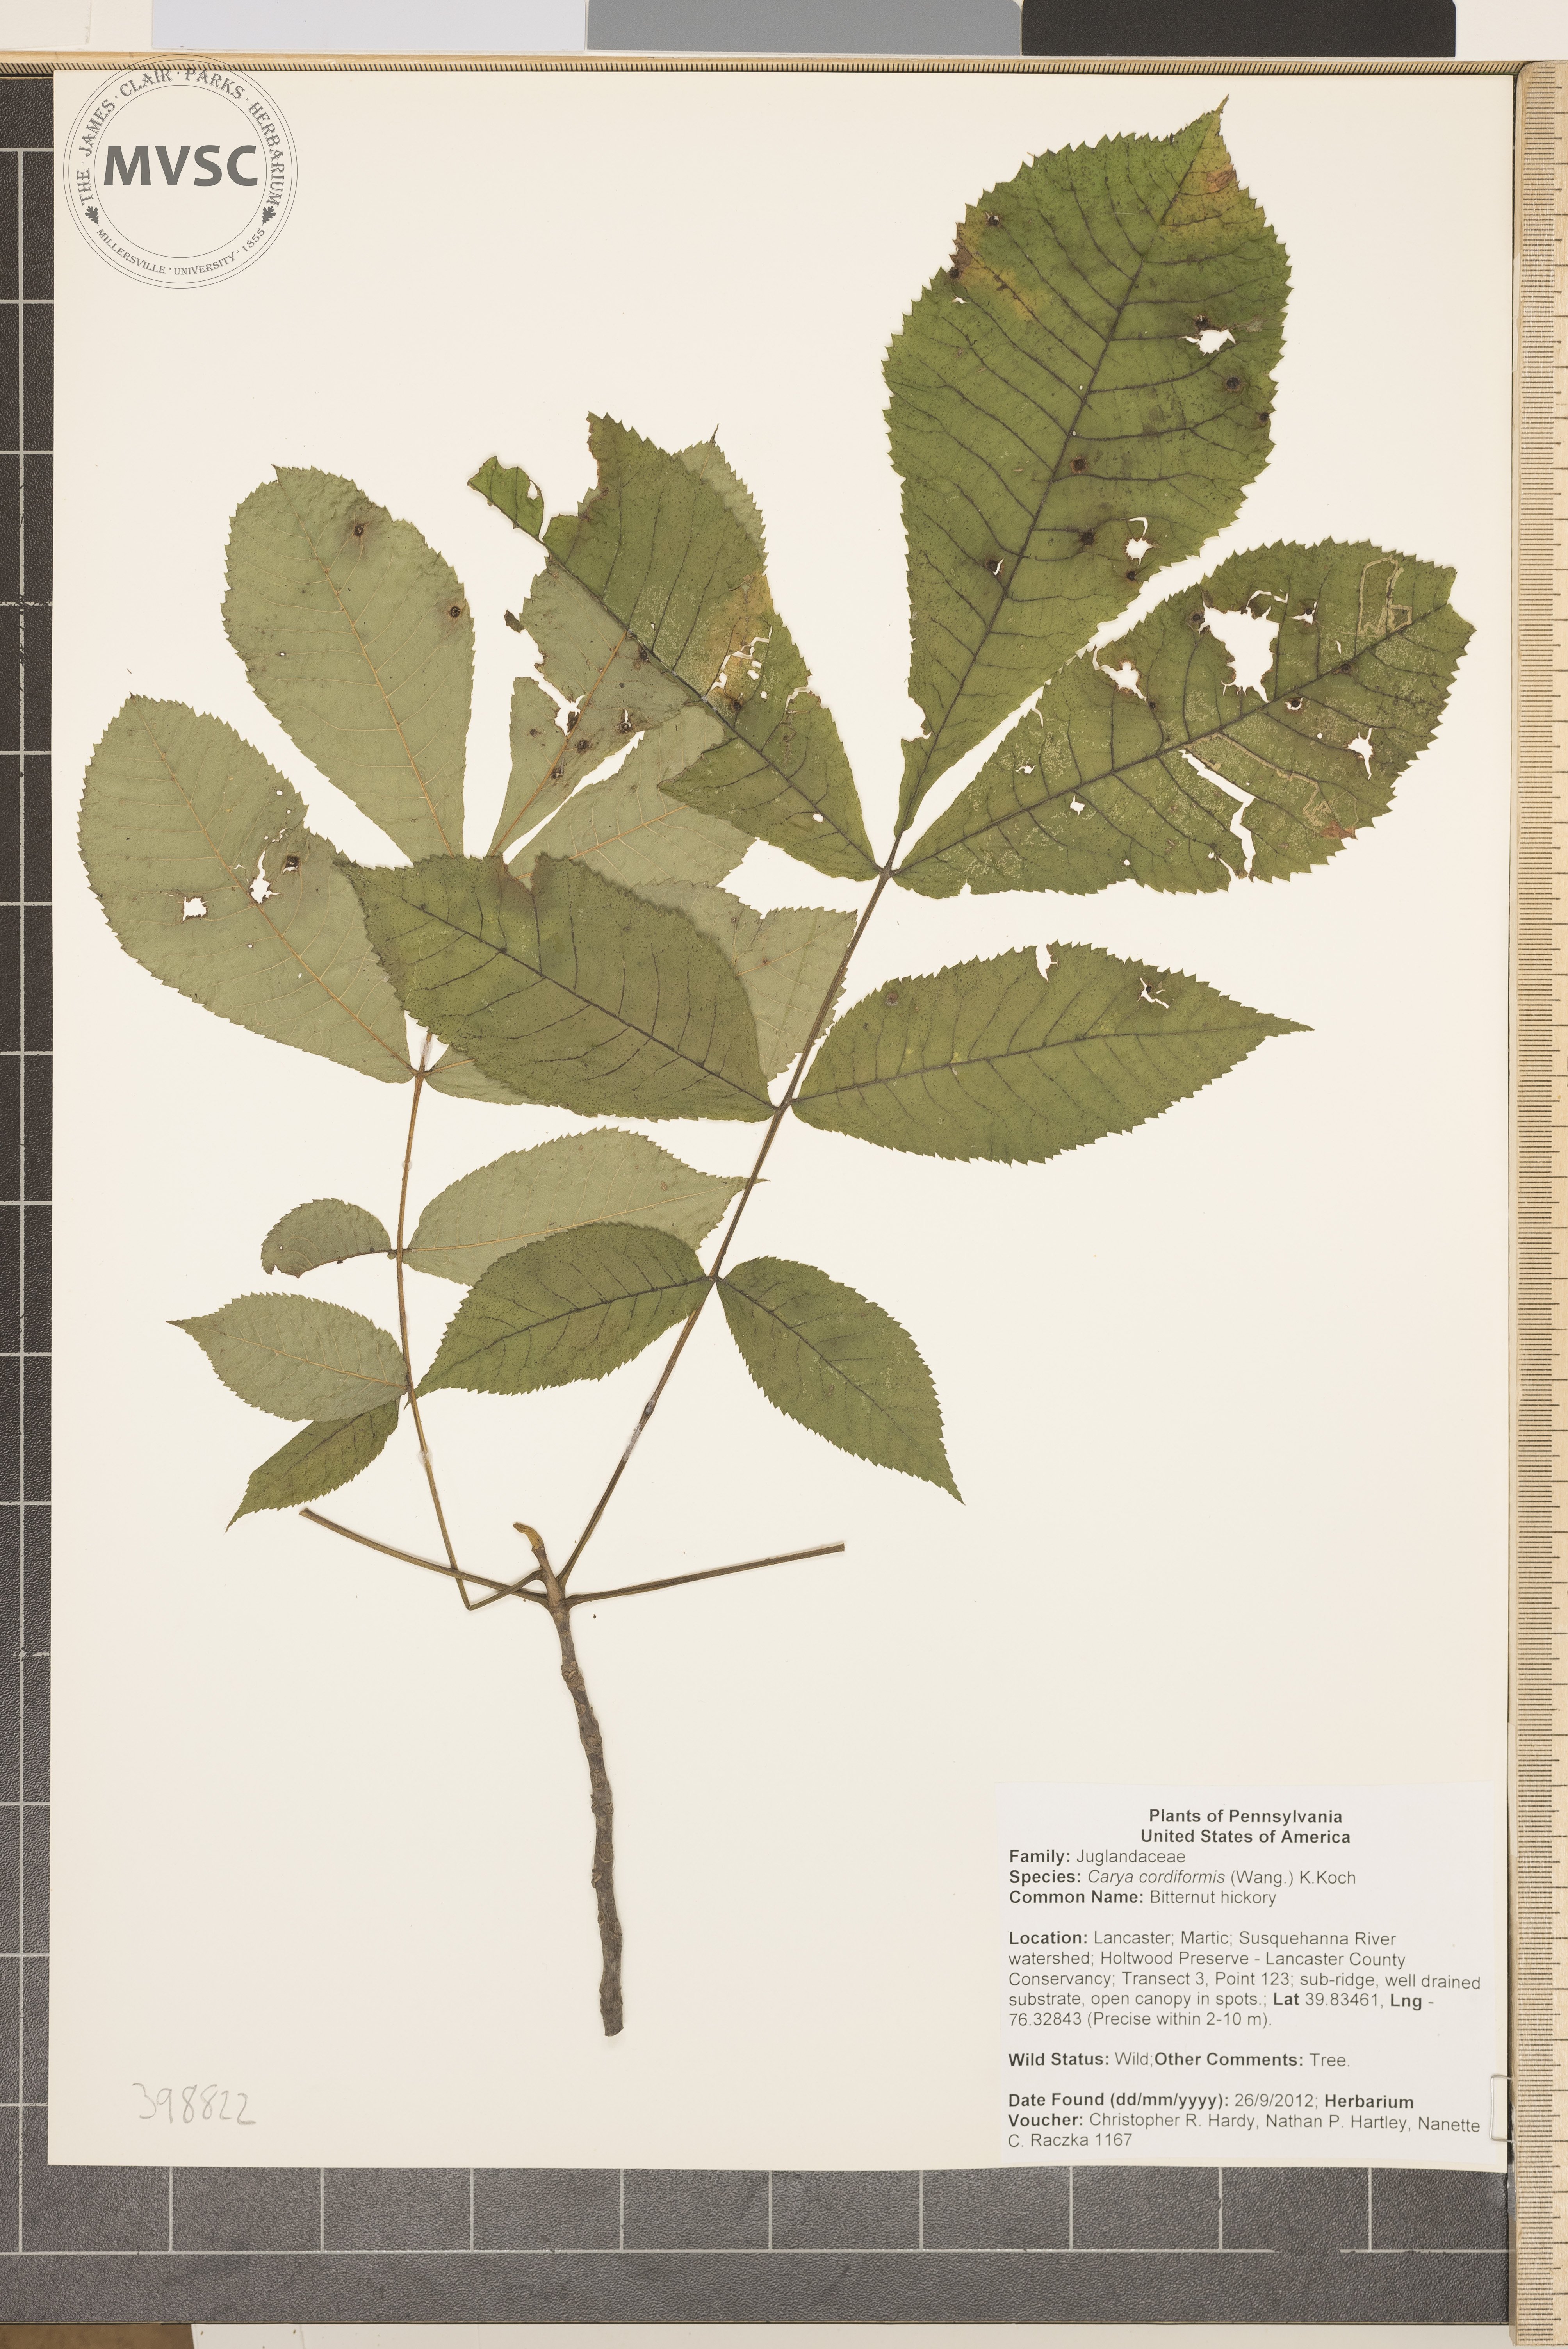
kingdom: Plantae
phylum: Tracheophyta
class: Magnoliopsida
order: Dipsacales
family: Caprifoliaceae
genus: Lonicera
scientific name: Lonicera japonica
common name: Japanese honeysuckle
